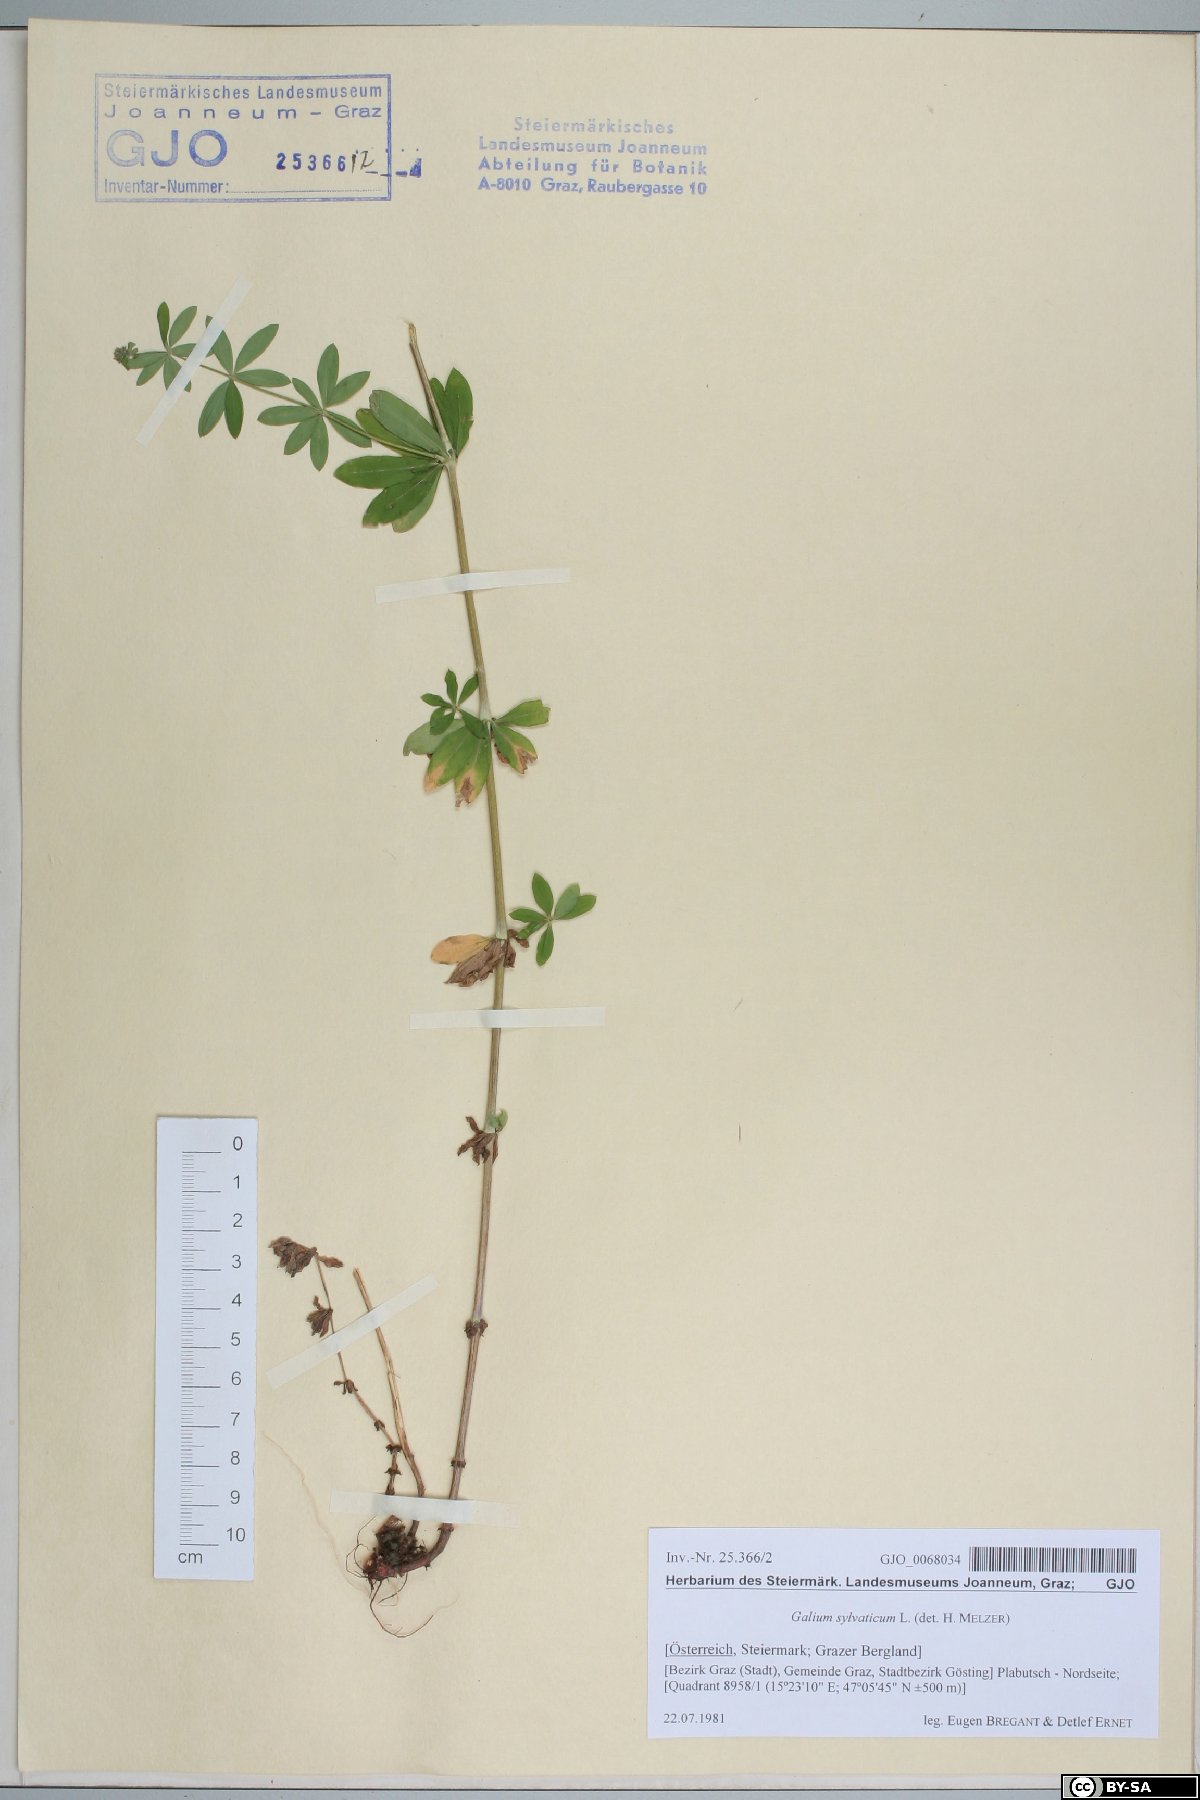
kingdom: Plantae
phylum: Tracheophyta
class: Magnoliopsida
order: Gentianales
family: Rubiaceae
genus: Galium
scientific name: Galium sylvaticum
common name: Wood bedstraw
